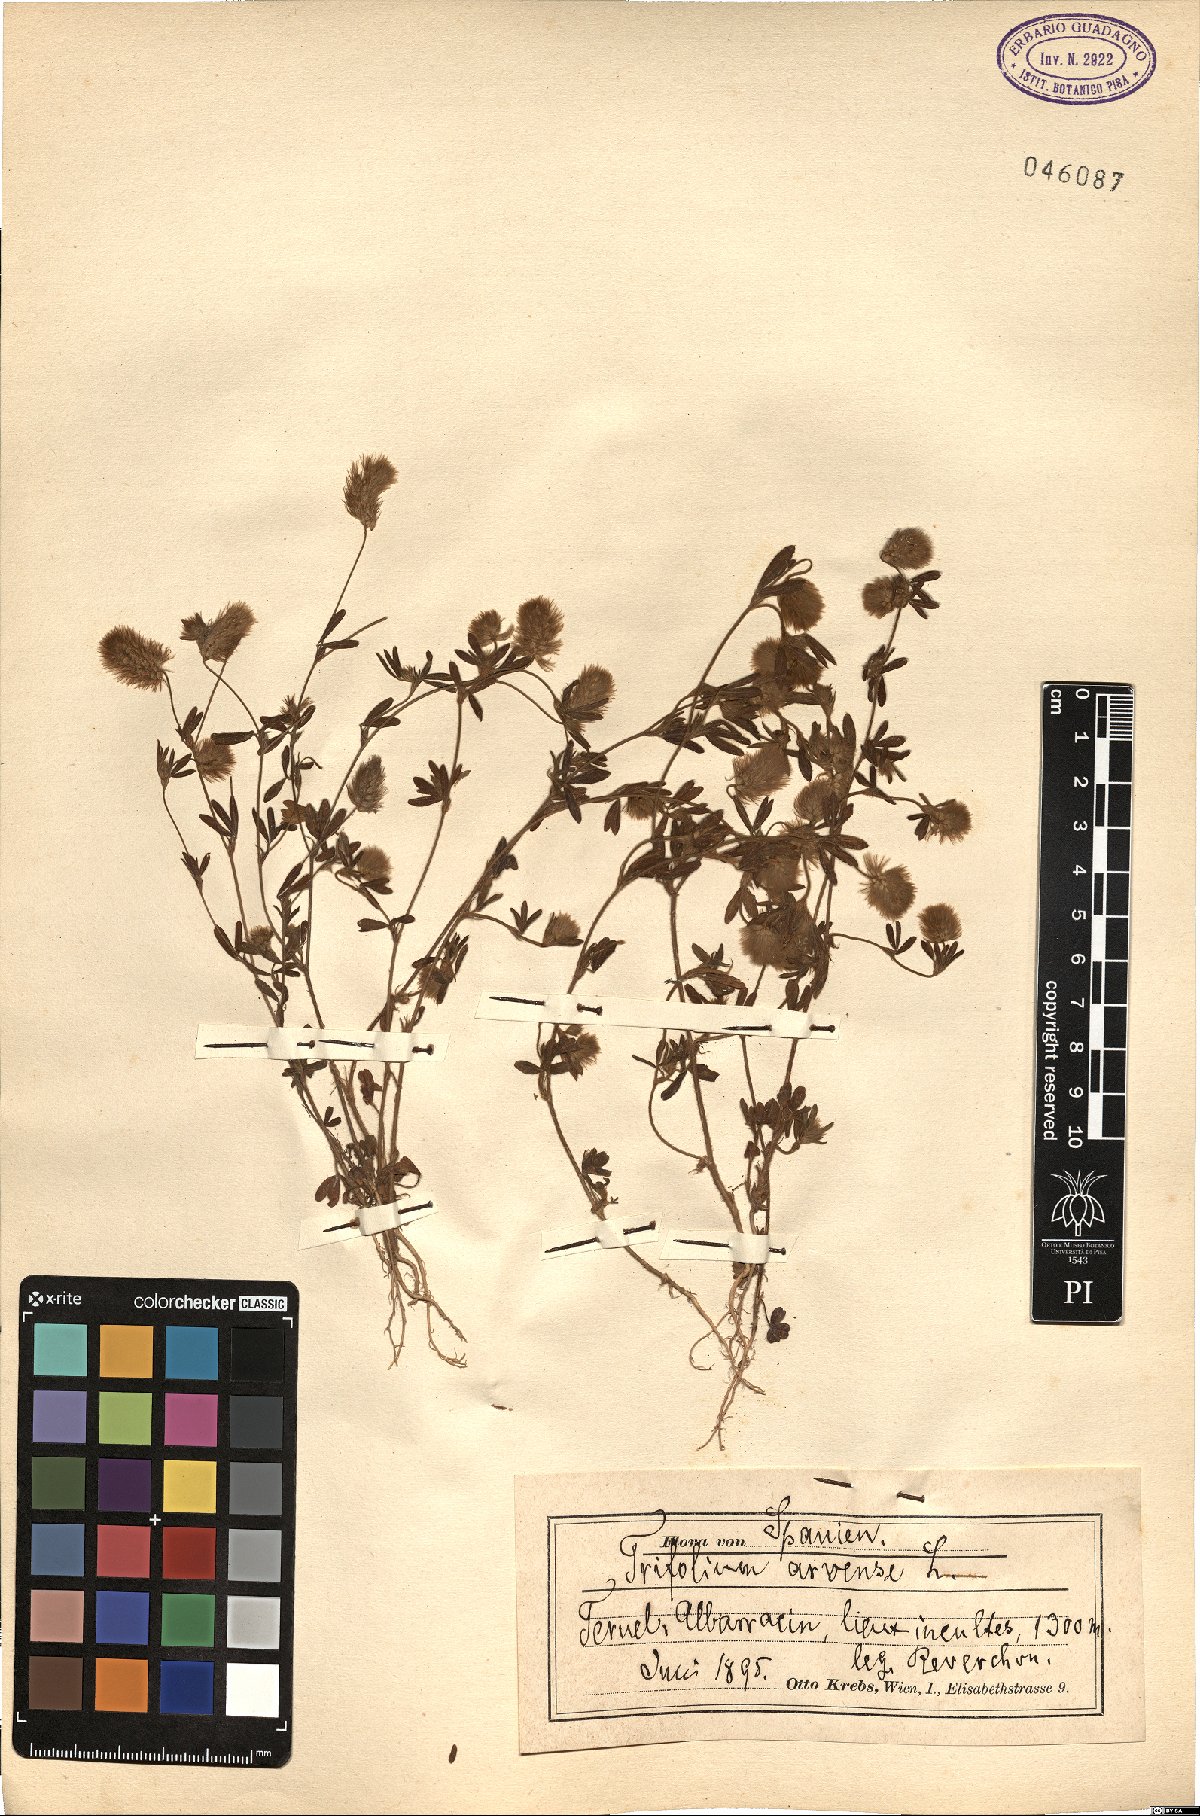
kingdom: Plantae
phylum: Tracheophyta
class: Magnoliopsida
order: Fabales
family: Fabaceae
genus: Trifolium
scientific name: Trifolium arvense
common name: Hare's-foot clover
